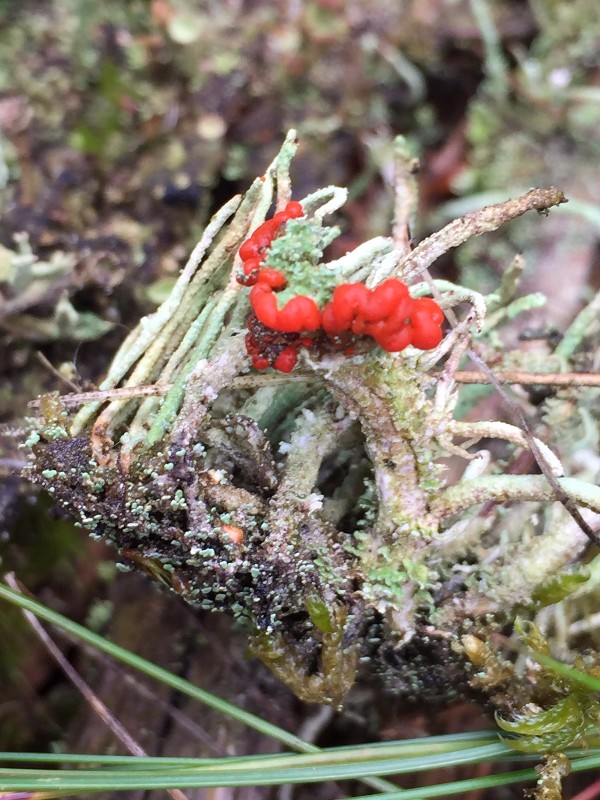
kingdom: Fungi
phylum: Ascomycota
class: Lecanoromycetes
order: Lecanorales
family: Cladoniaceae
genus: Cladonia
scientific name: Cladonia diversa
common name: rød bægerlav
